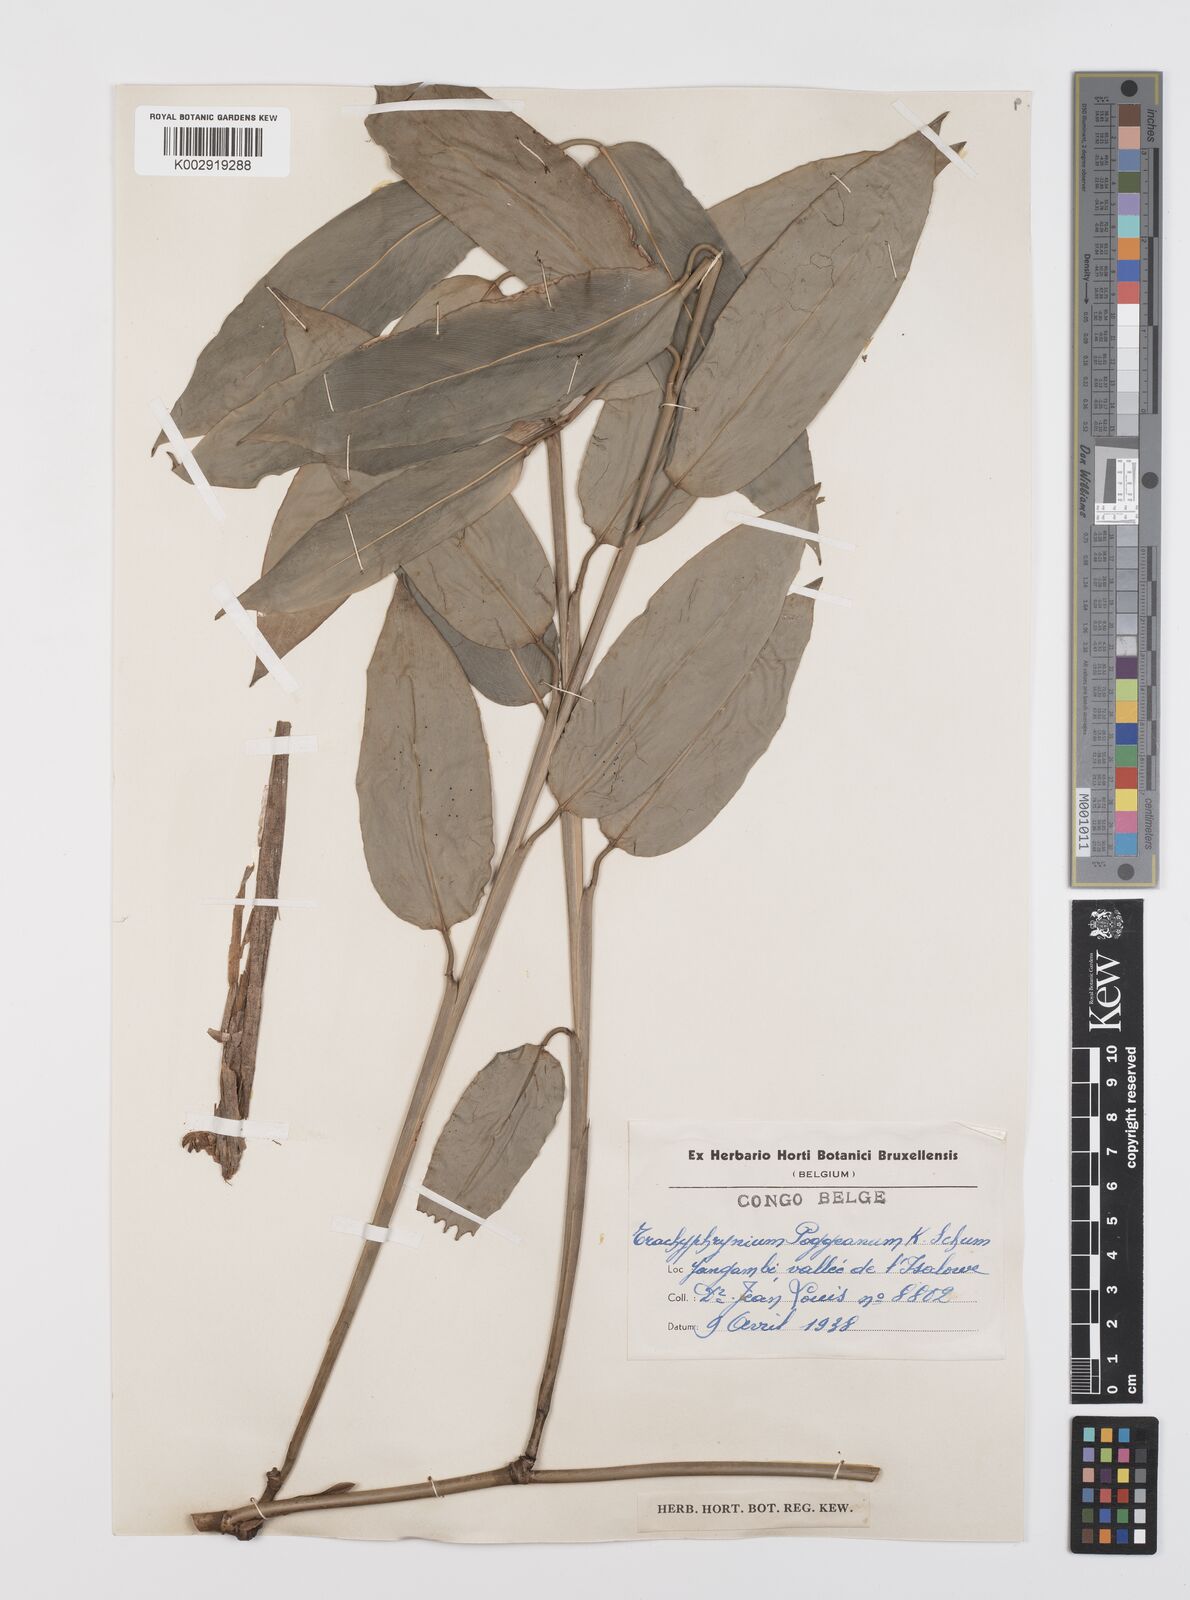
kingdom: Plantae
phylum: Tracheophyta
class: Liliopsida
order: Zingiberales
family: Marantaceae
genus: Hypselodelphys
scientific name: Hypselodelphys poggeana
